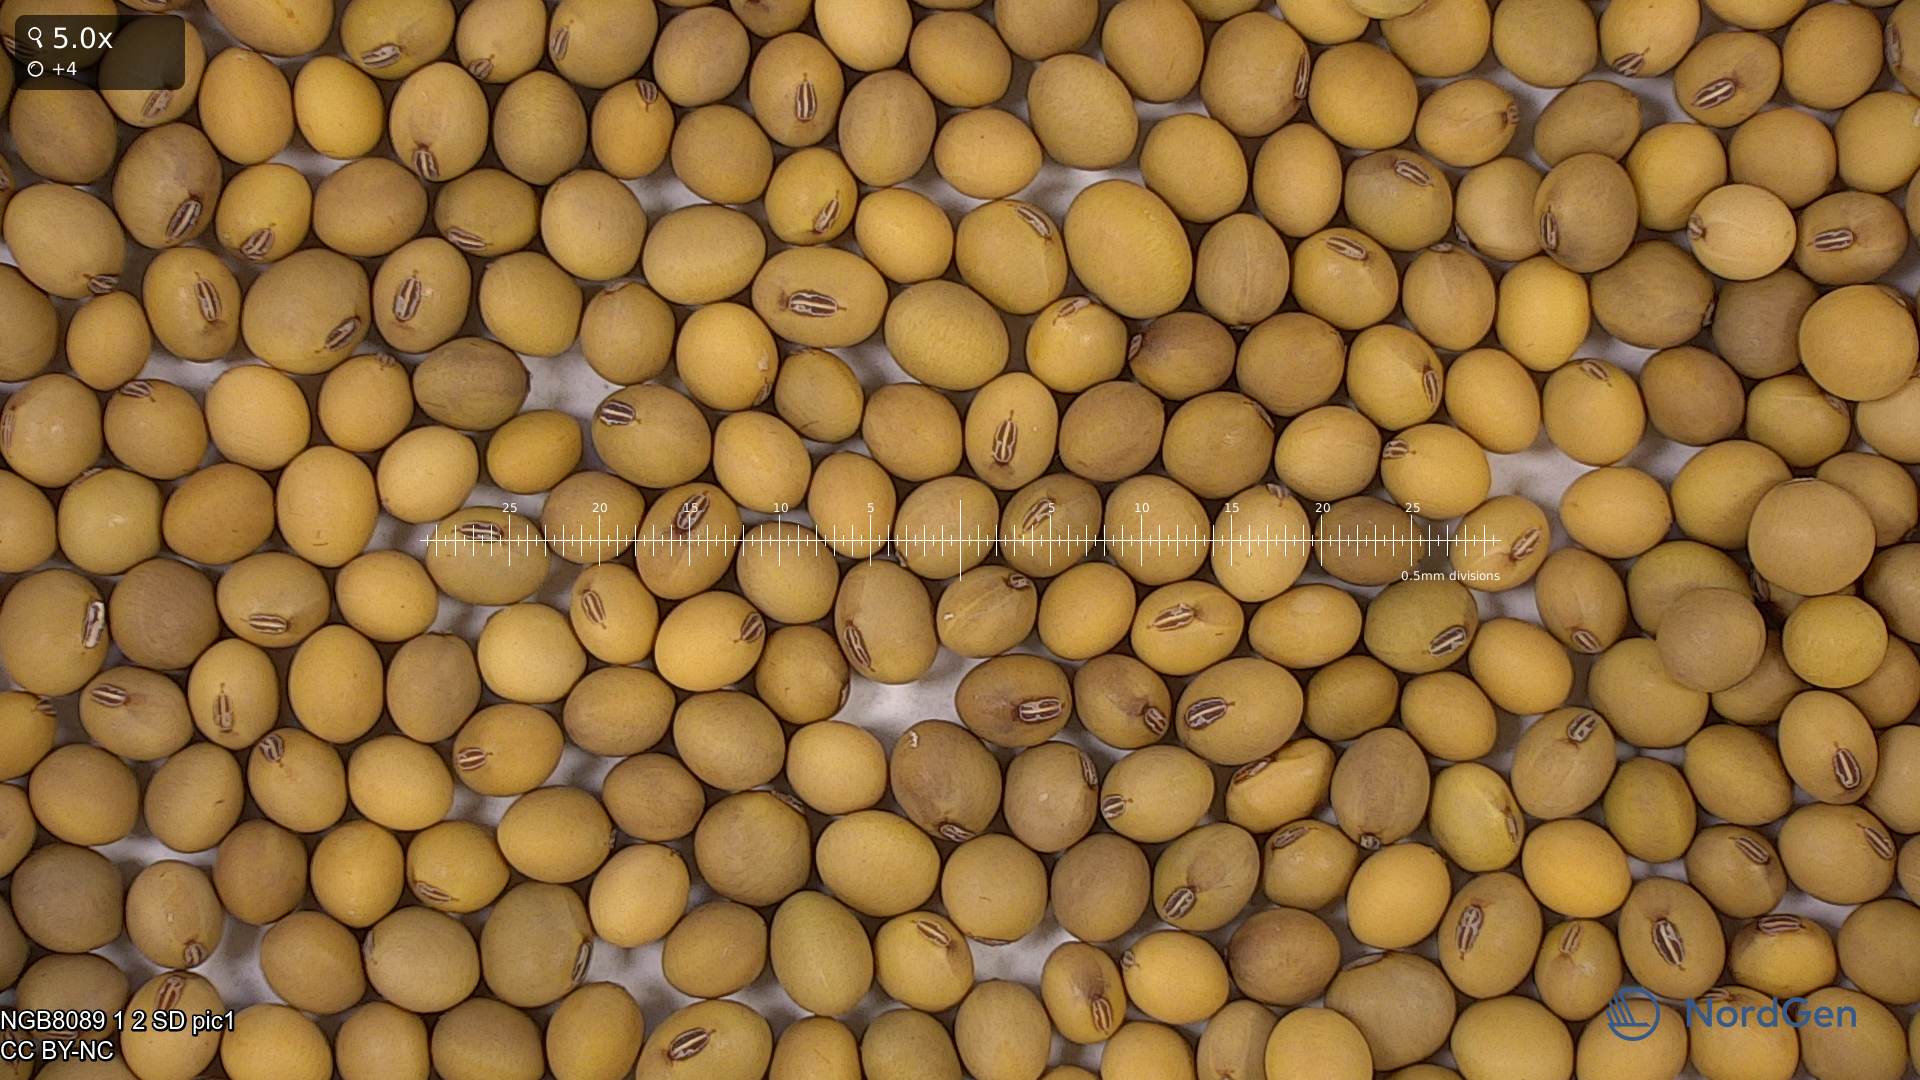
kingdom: Plantae
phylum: Tracheophyta
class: Magnoliopsida
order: Fabales
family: Fabaceae
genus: Glycine
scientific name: Glycine max
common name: Soya-bean
